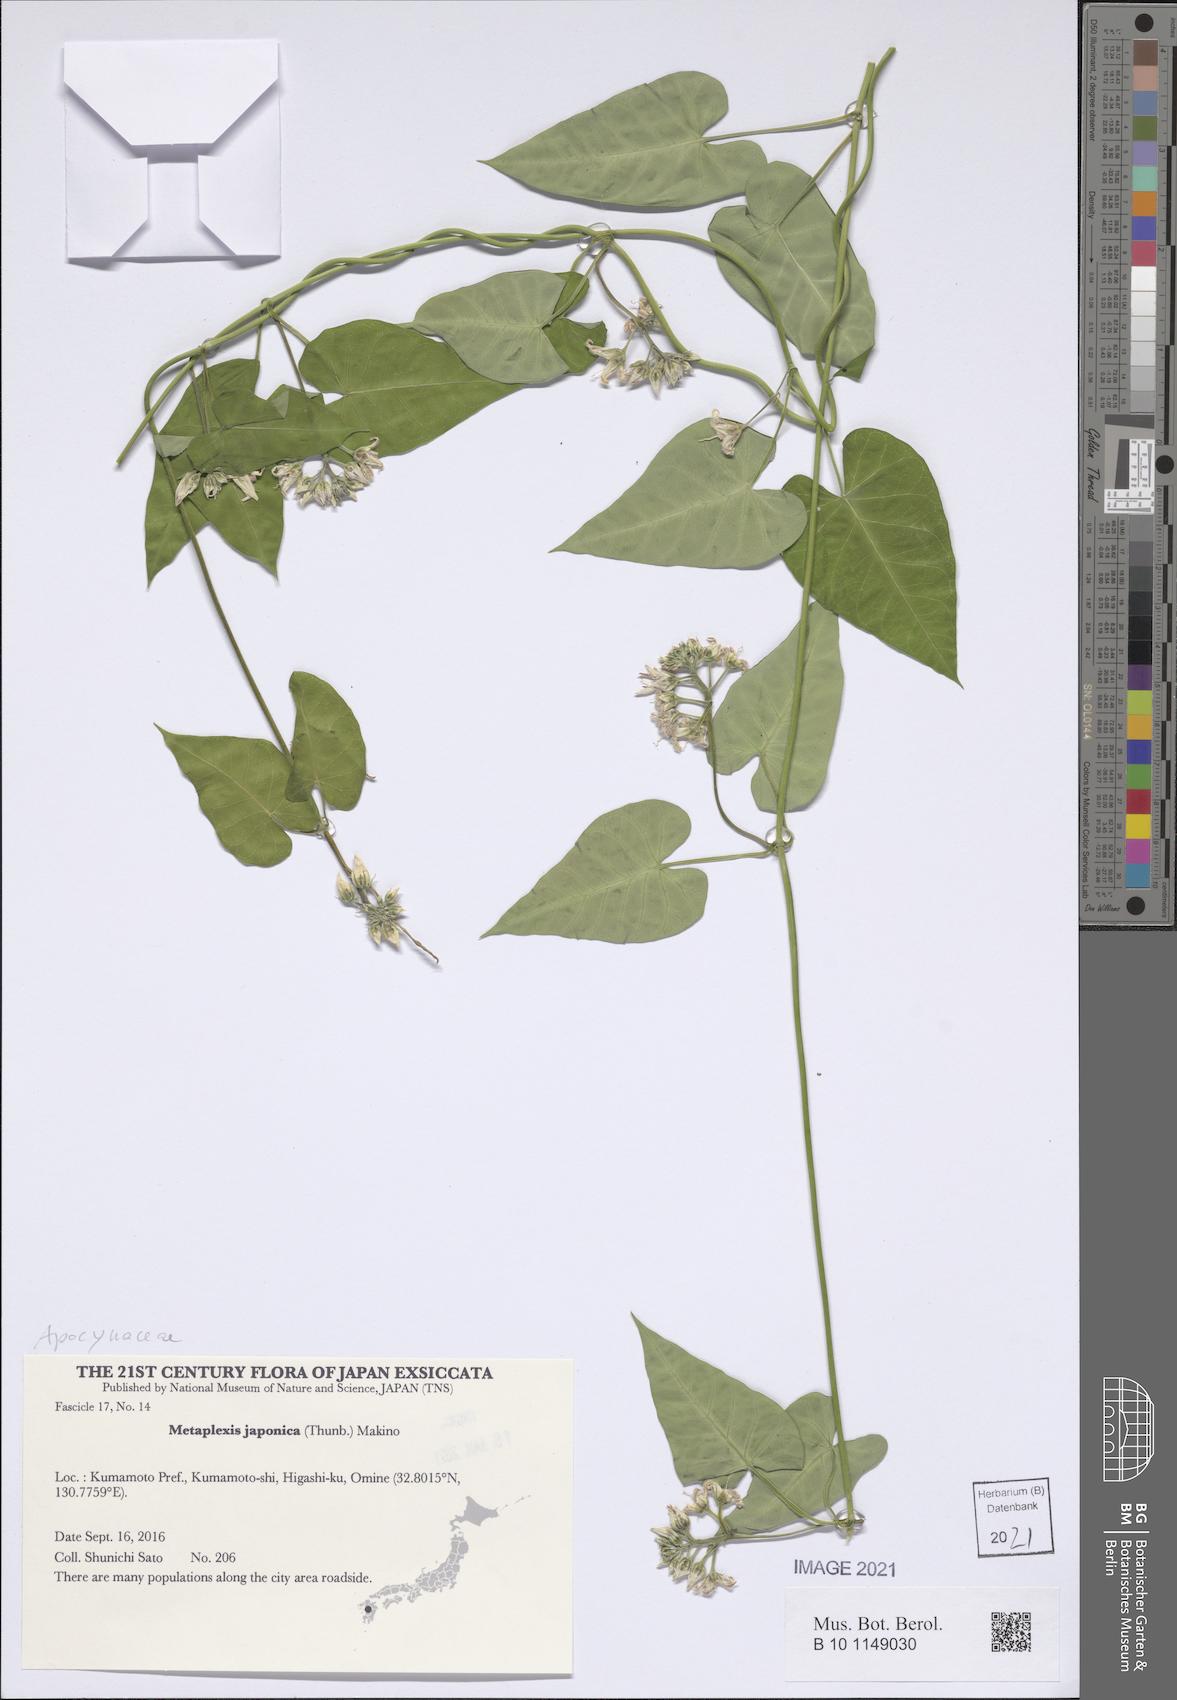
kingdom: Plantae
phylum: Tracheophyta
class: Magnoliopsida
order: Gentianales
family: Apocynaceae
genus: Cynanchum
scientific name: Cynanchum rostellatum
